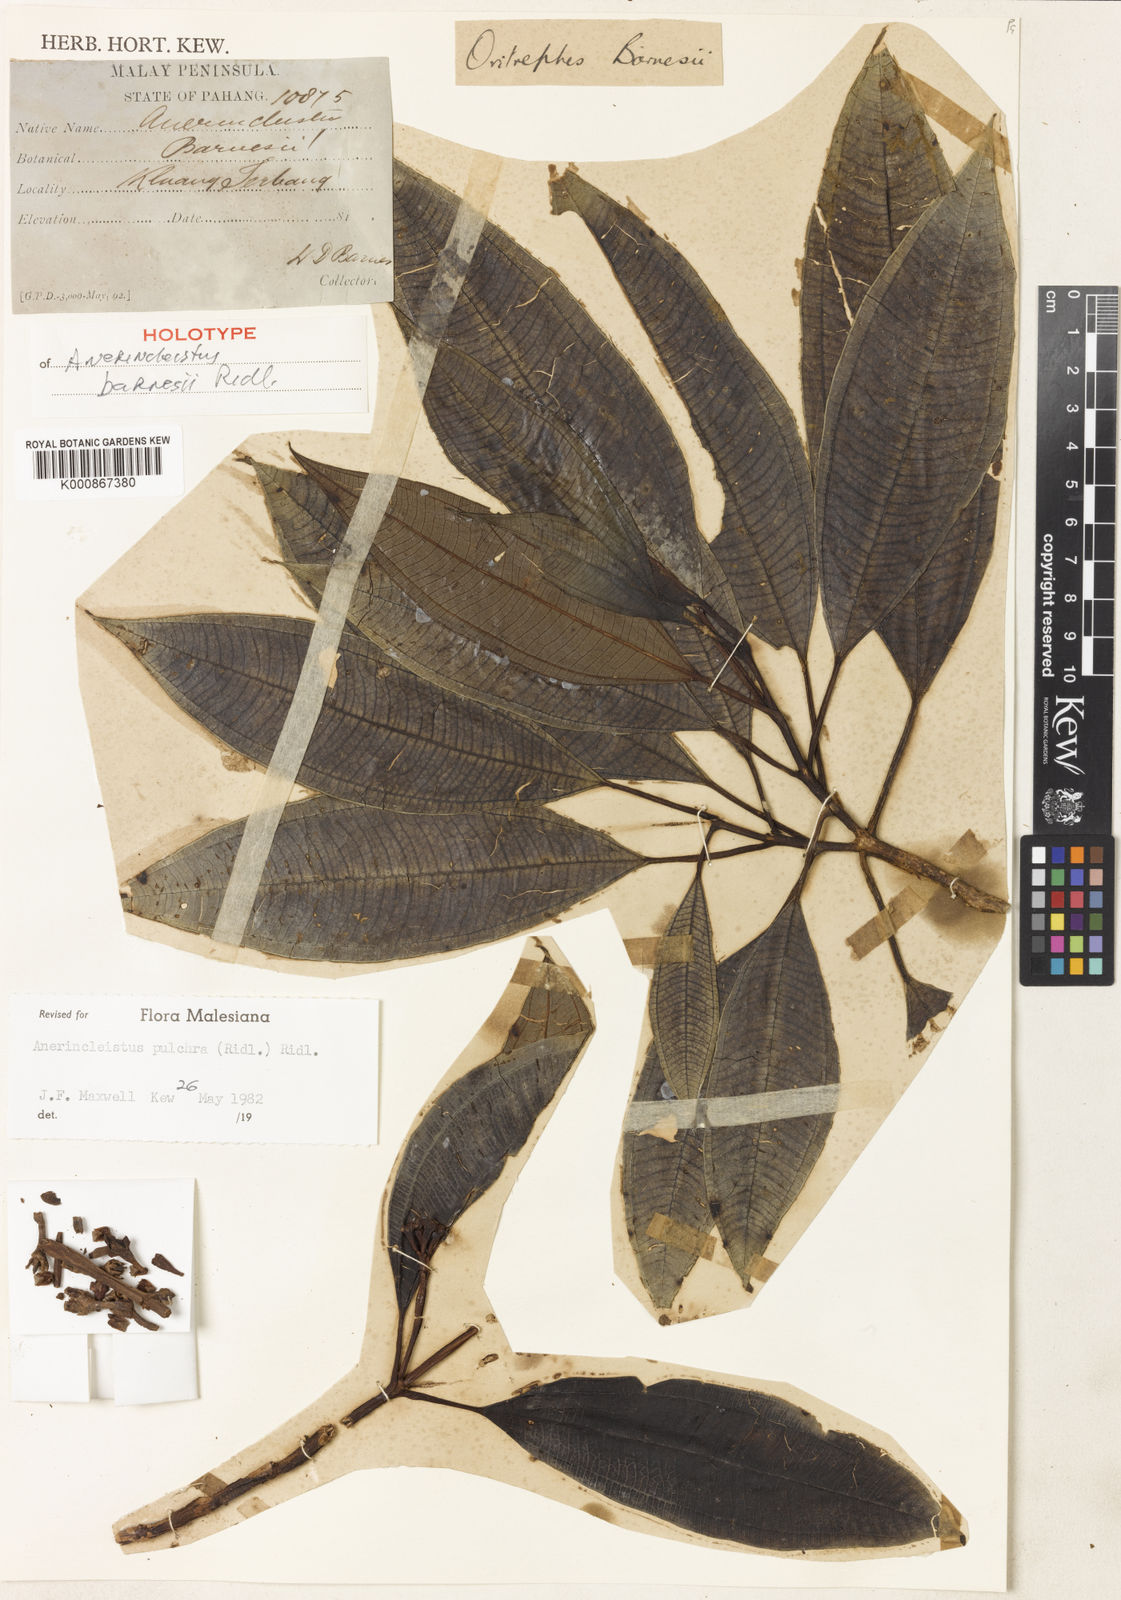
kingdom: Plantae
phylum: Tracheophyta
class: Magnoliopsida
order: Myrtales
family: Melastomataceae
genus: Anerincleistus
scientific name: Anerincleistus pulchra
